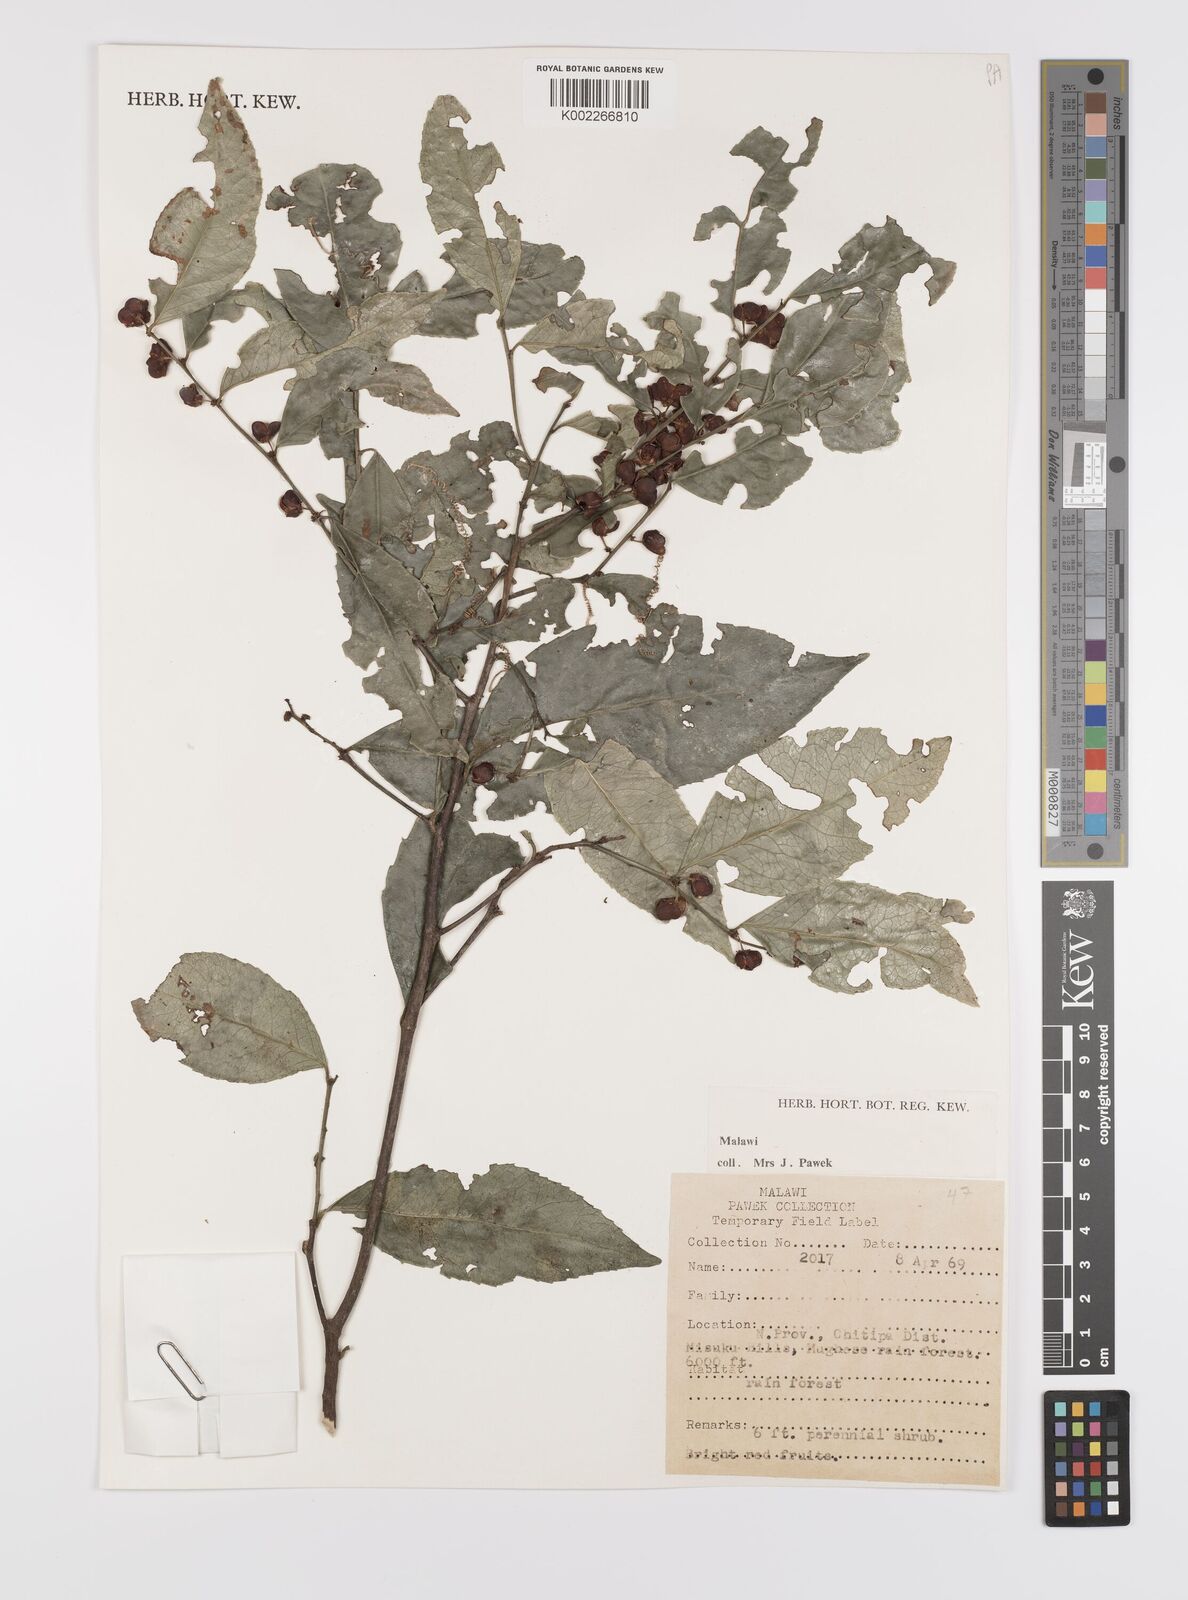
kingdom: Plantae
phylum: Tracheophyta
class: Magnoliopsida
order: Celastrales
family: Celastraceae
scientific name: Celastraceae
